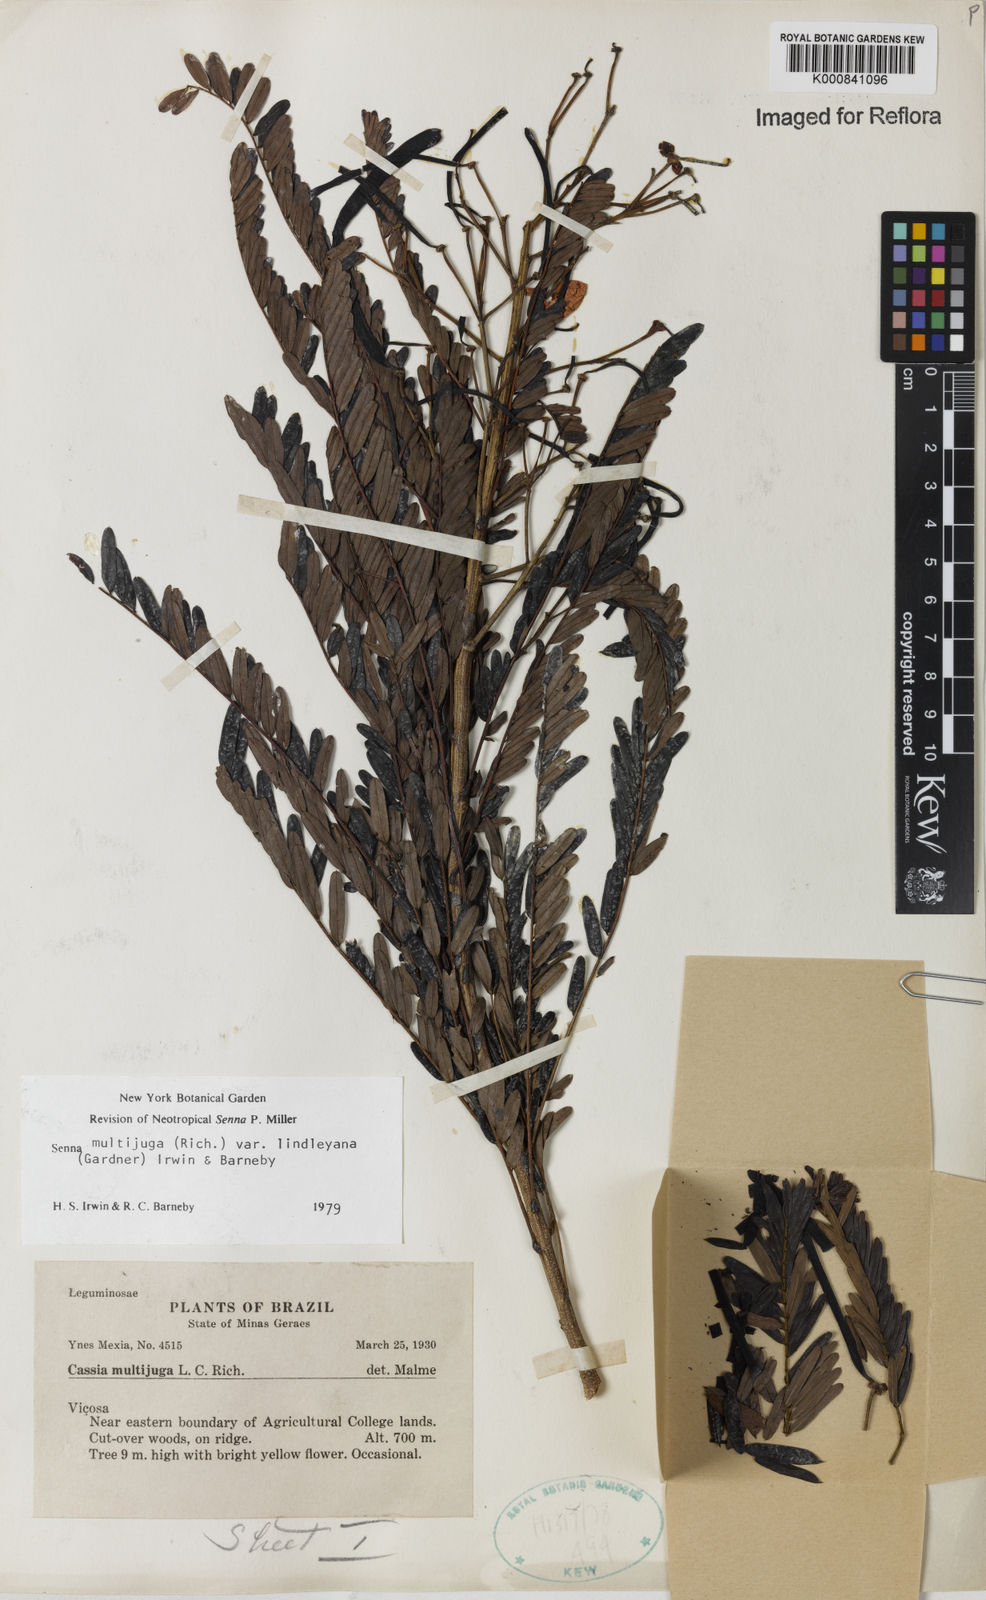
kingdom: Plantae
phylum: Tracheophyta
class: Magnoliopsida
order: Fabales
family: Fabaceae
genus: Senna
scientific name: Senna multijuga
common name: False sicklepod
